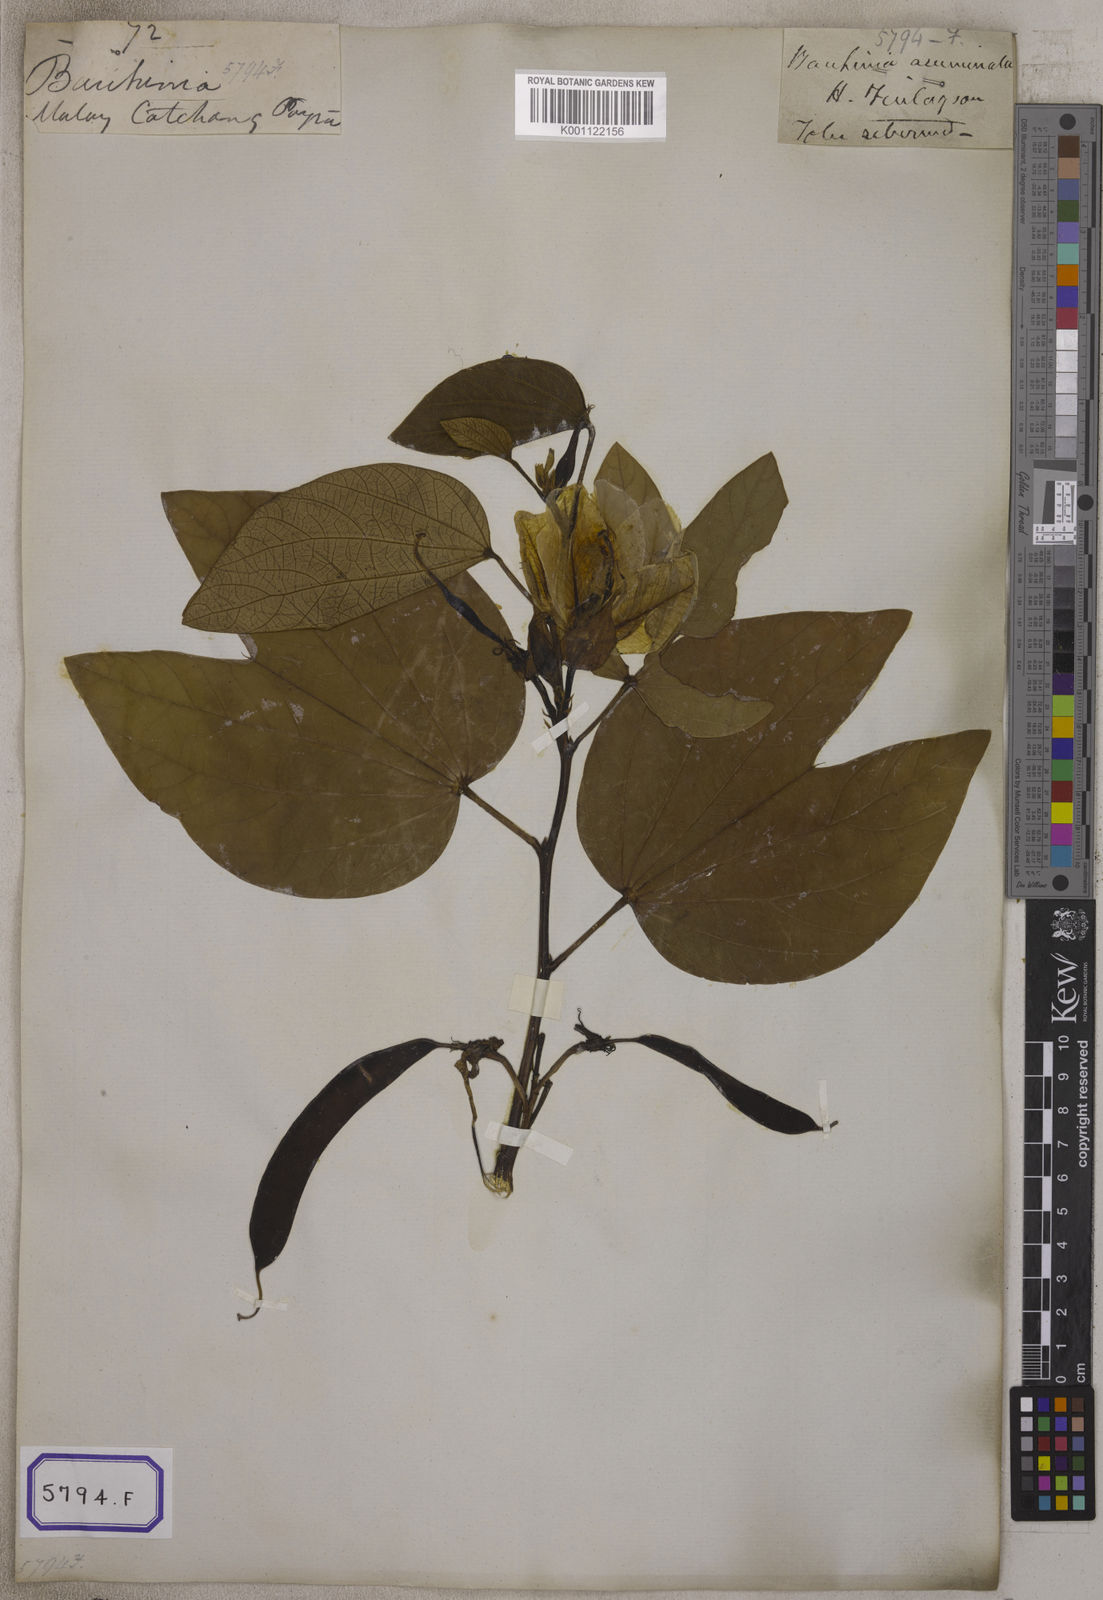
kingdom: Plantae
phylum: Tracheophyta
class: Magnoliopsida
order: Fabales
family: Fabaceae
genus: Bauhinia
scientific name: Bauhinia acuminata
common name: Dwarf white bauhinia
